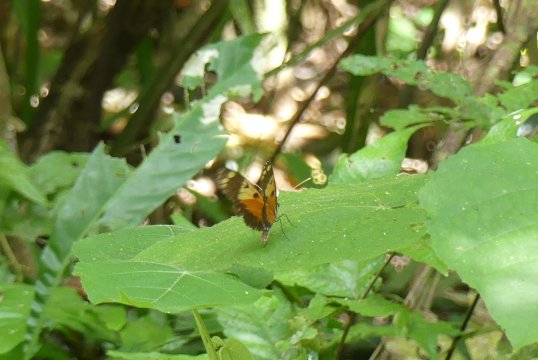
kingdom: Animalia
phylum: Arthropoda
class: Insecta
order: Lepidoptera
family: Nymphalidae
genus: Heliconius
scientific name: Heliconius hecale
